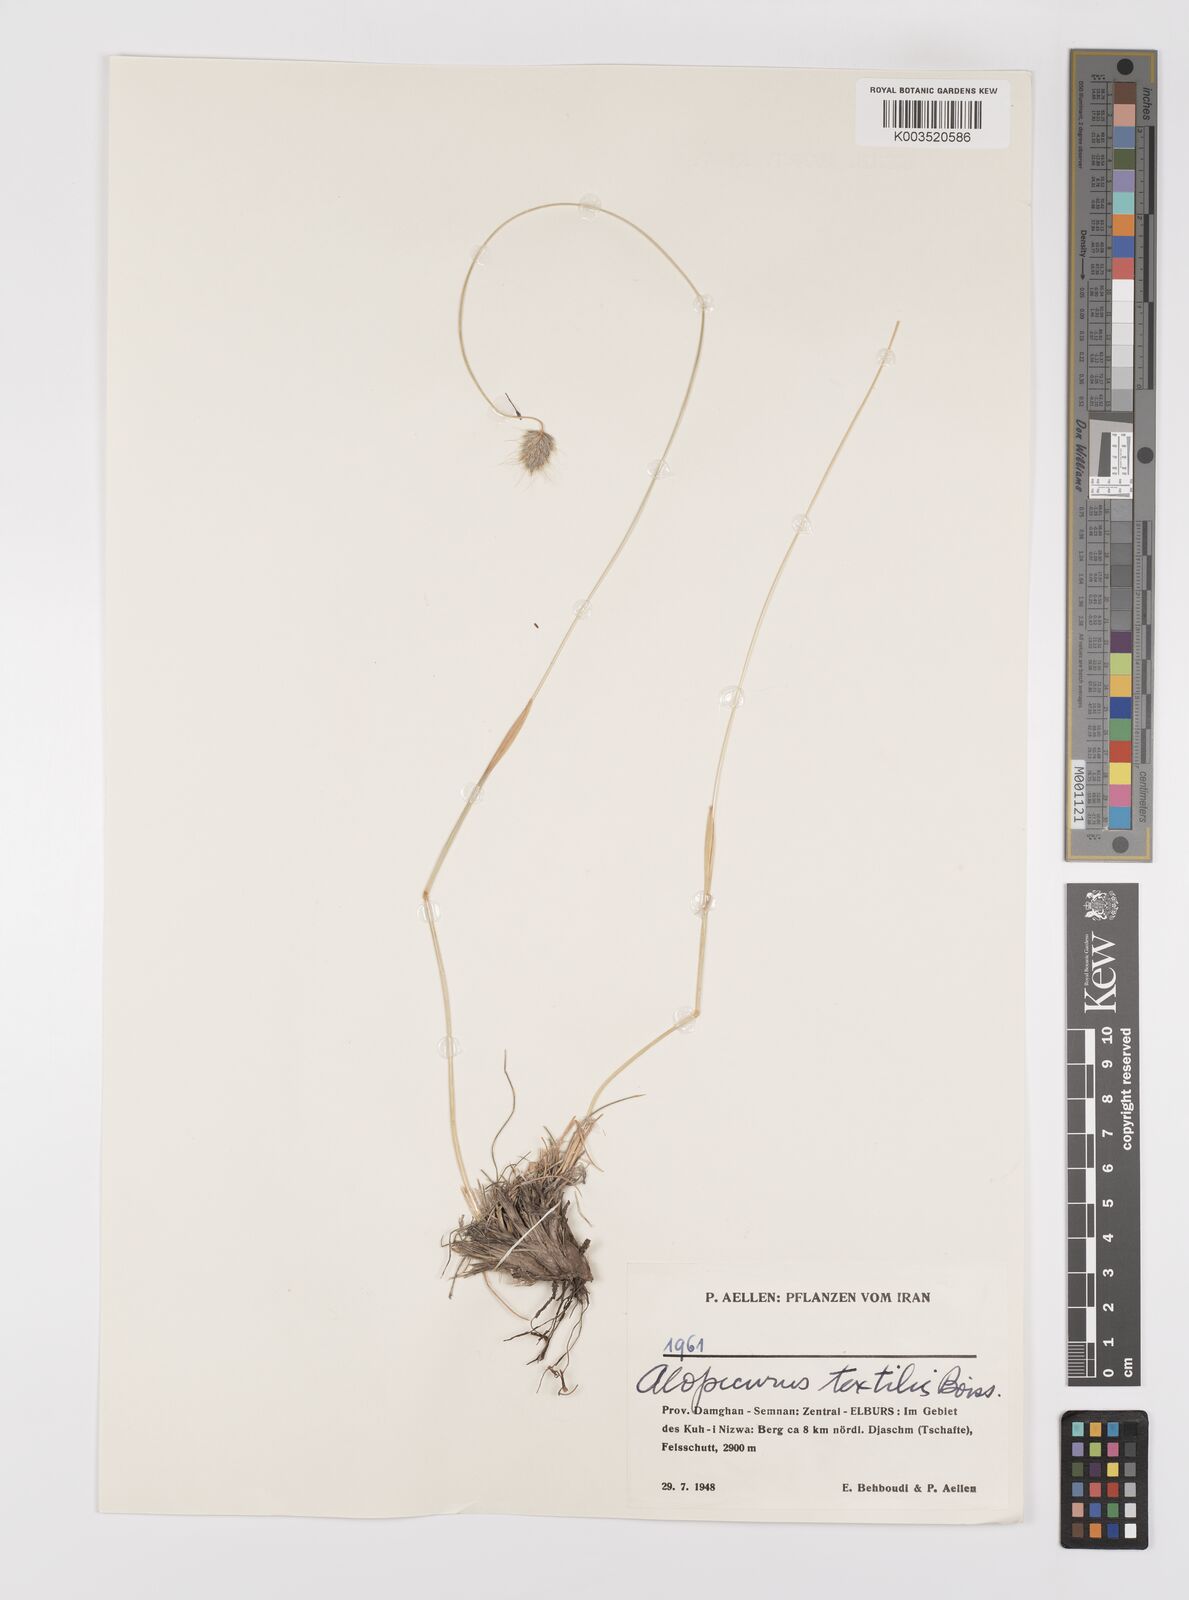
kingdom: Plantae
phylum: Tracheophyta
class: Liliopsida
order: Poales
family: Poaceae
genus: Alopecurus
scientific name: Alopecurus textilis
